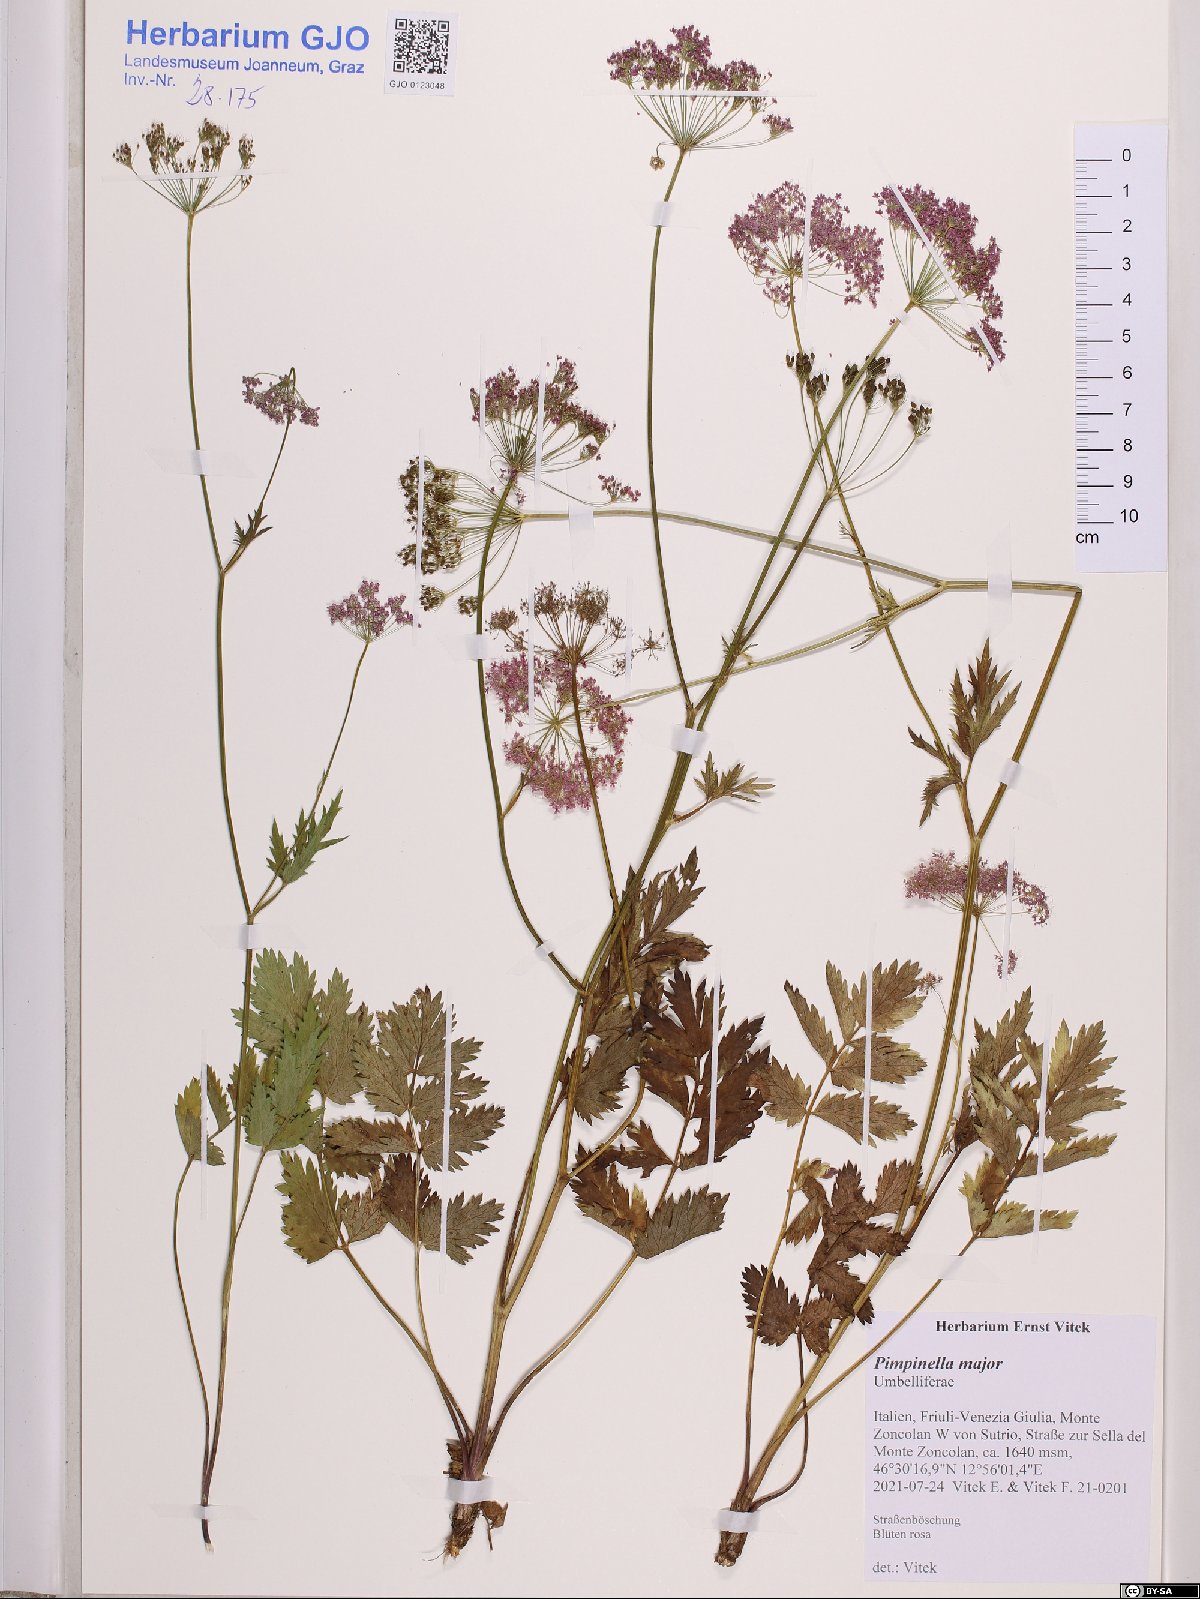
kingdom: Plantae
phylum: Tracheophyta
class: Magnoliopsida
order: Apiales
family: Apiaceae
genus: Pimpinella
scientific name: Pimpinella major
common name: Greater burnet-saxifrage
